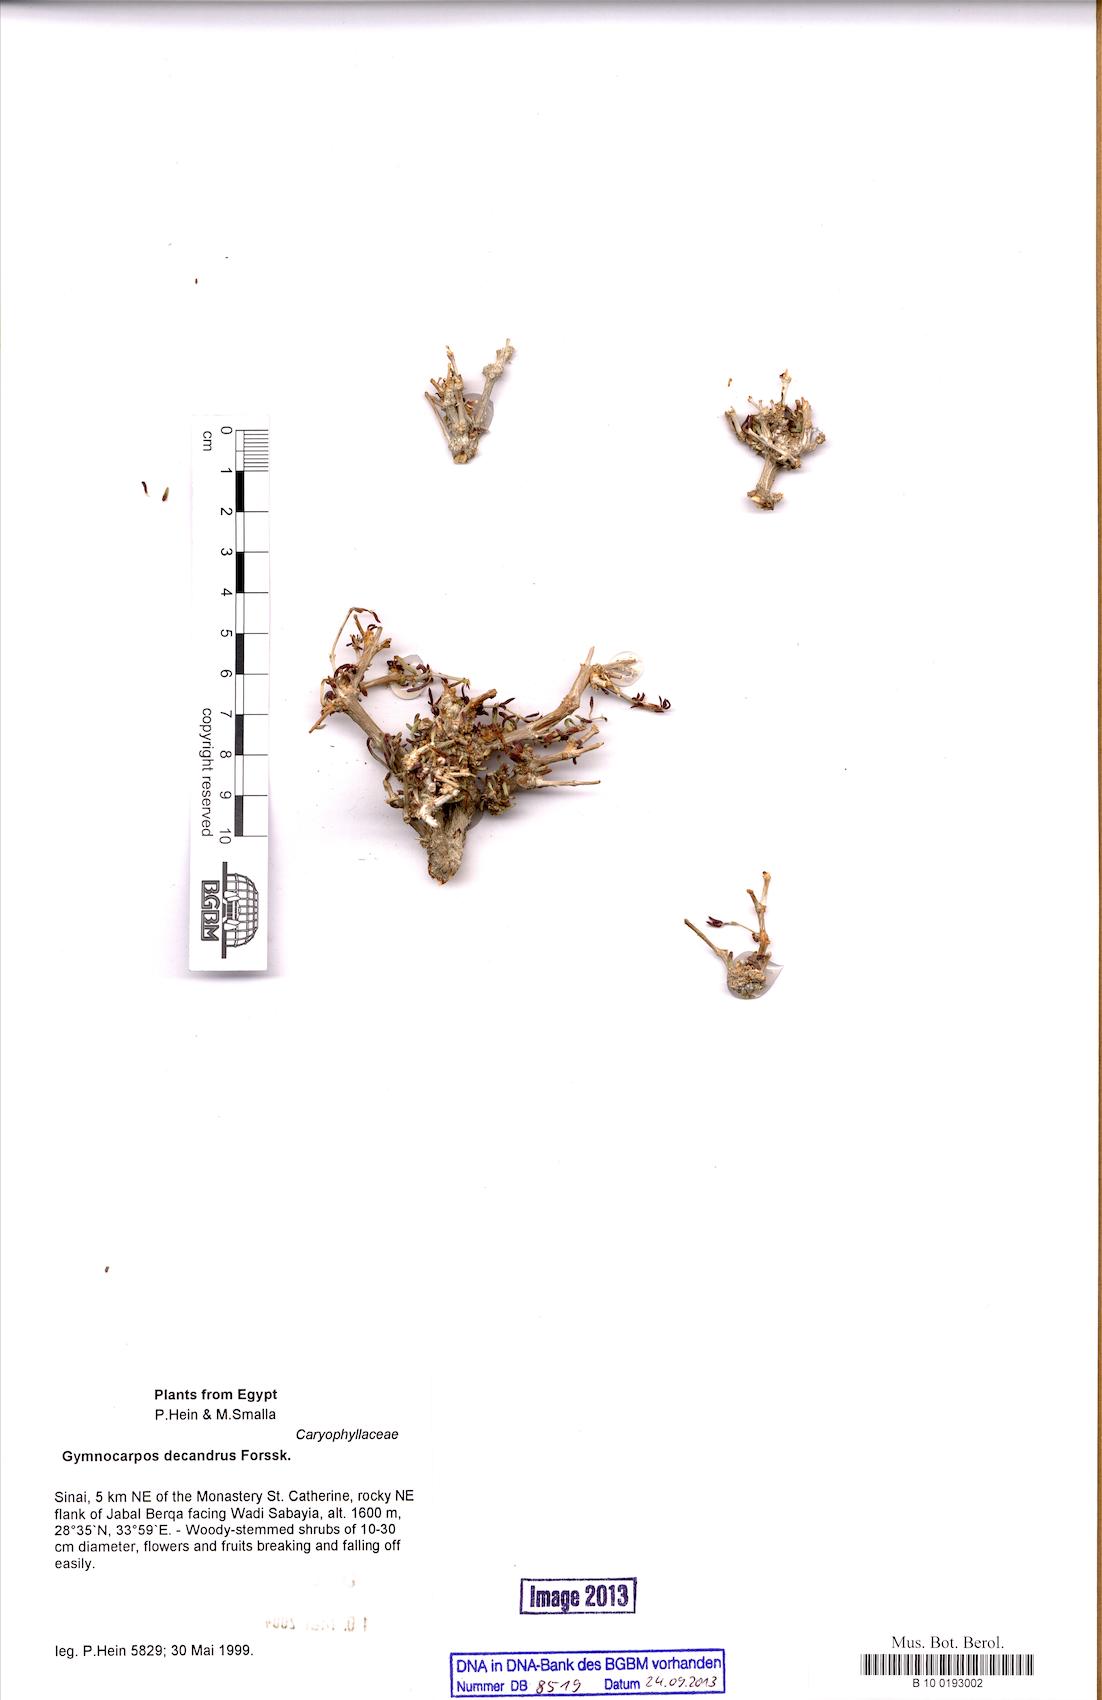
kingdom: Plantae
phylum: Tracheophyta
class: Magnoliopsida
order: Caryophyllales
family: Caryophyllaceae
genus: Gymnocarpos
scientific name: Gymnocarpos decandrus
